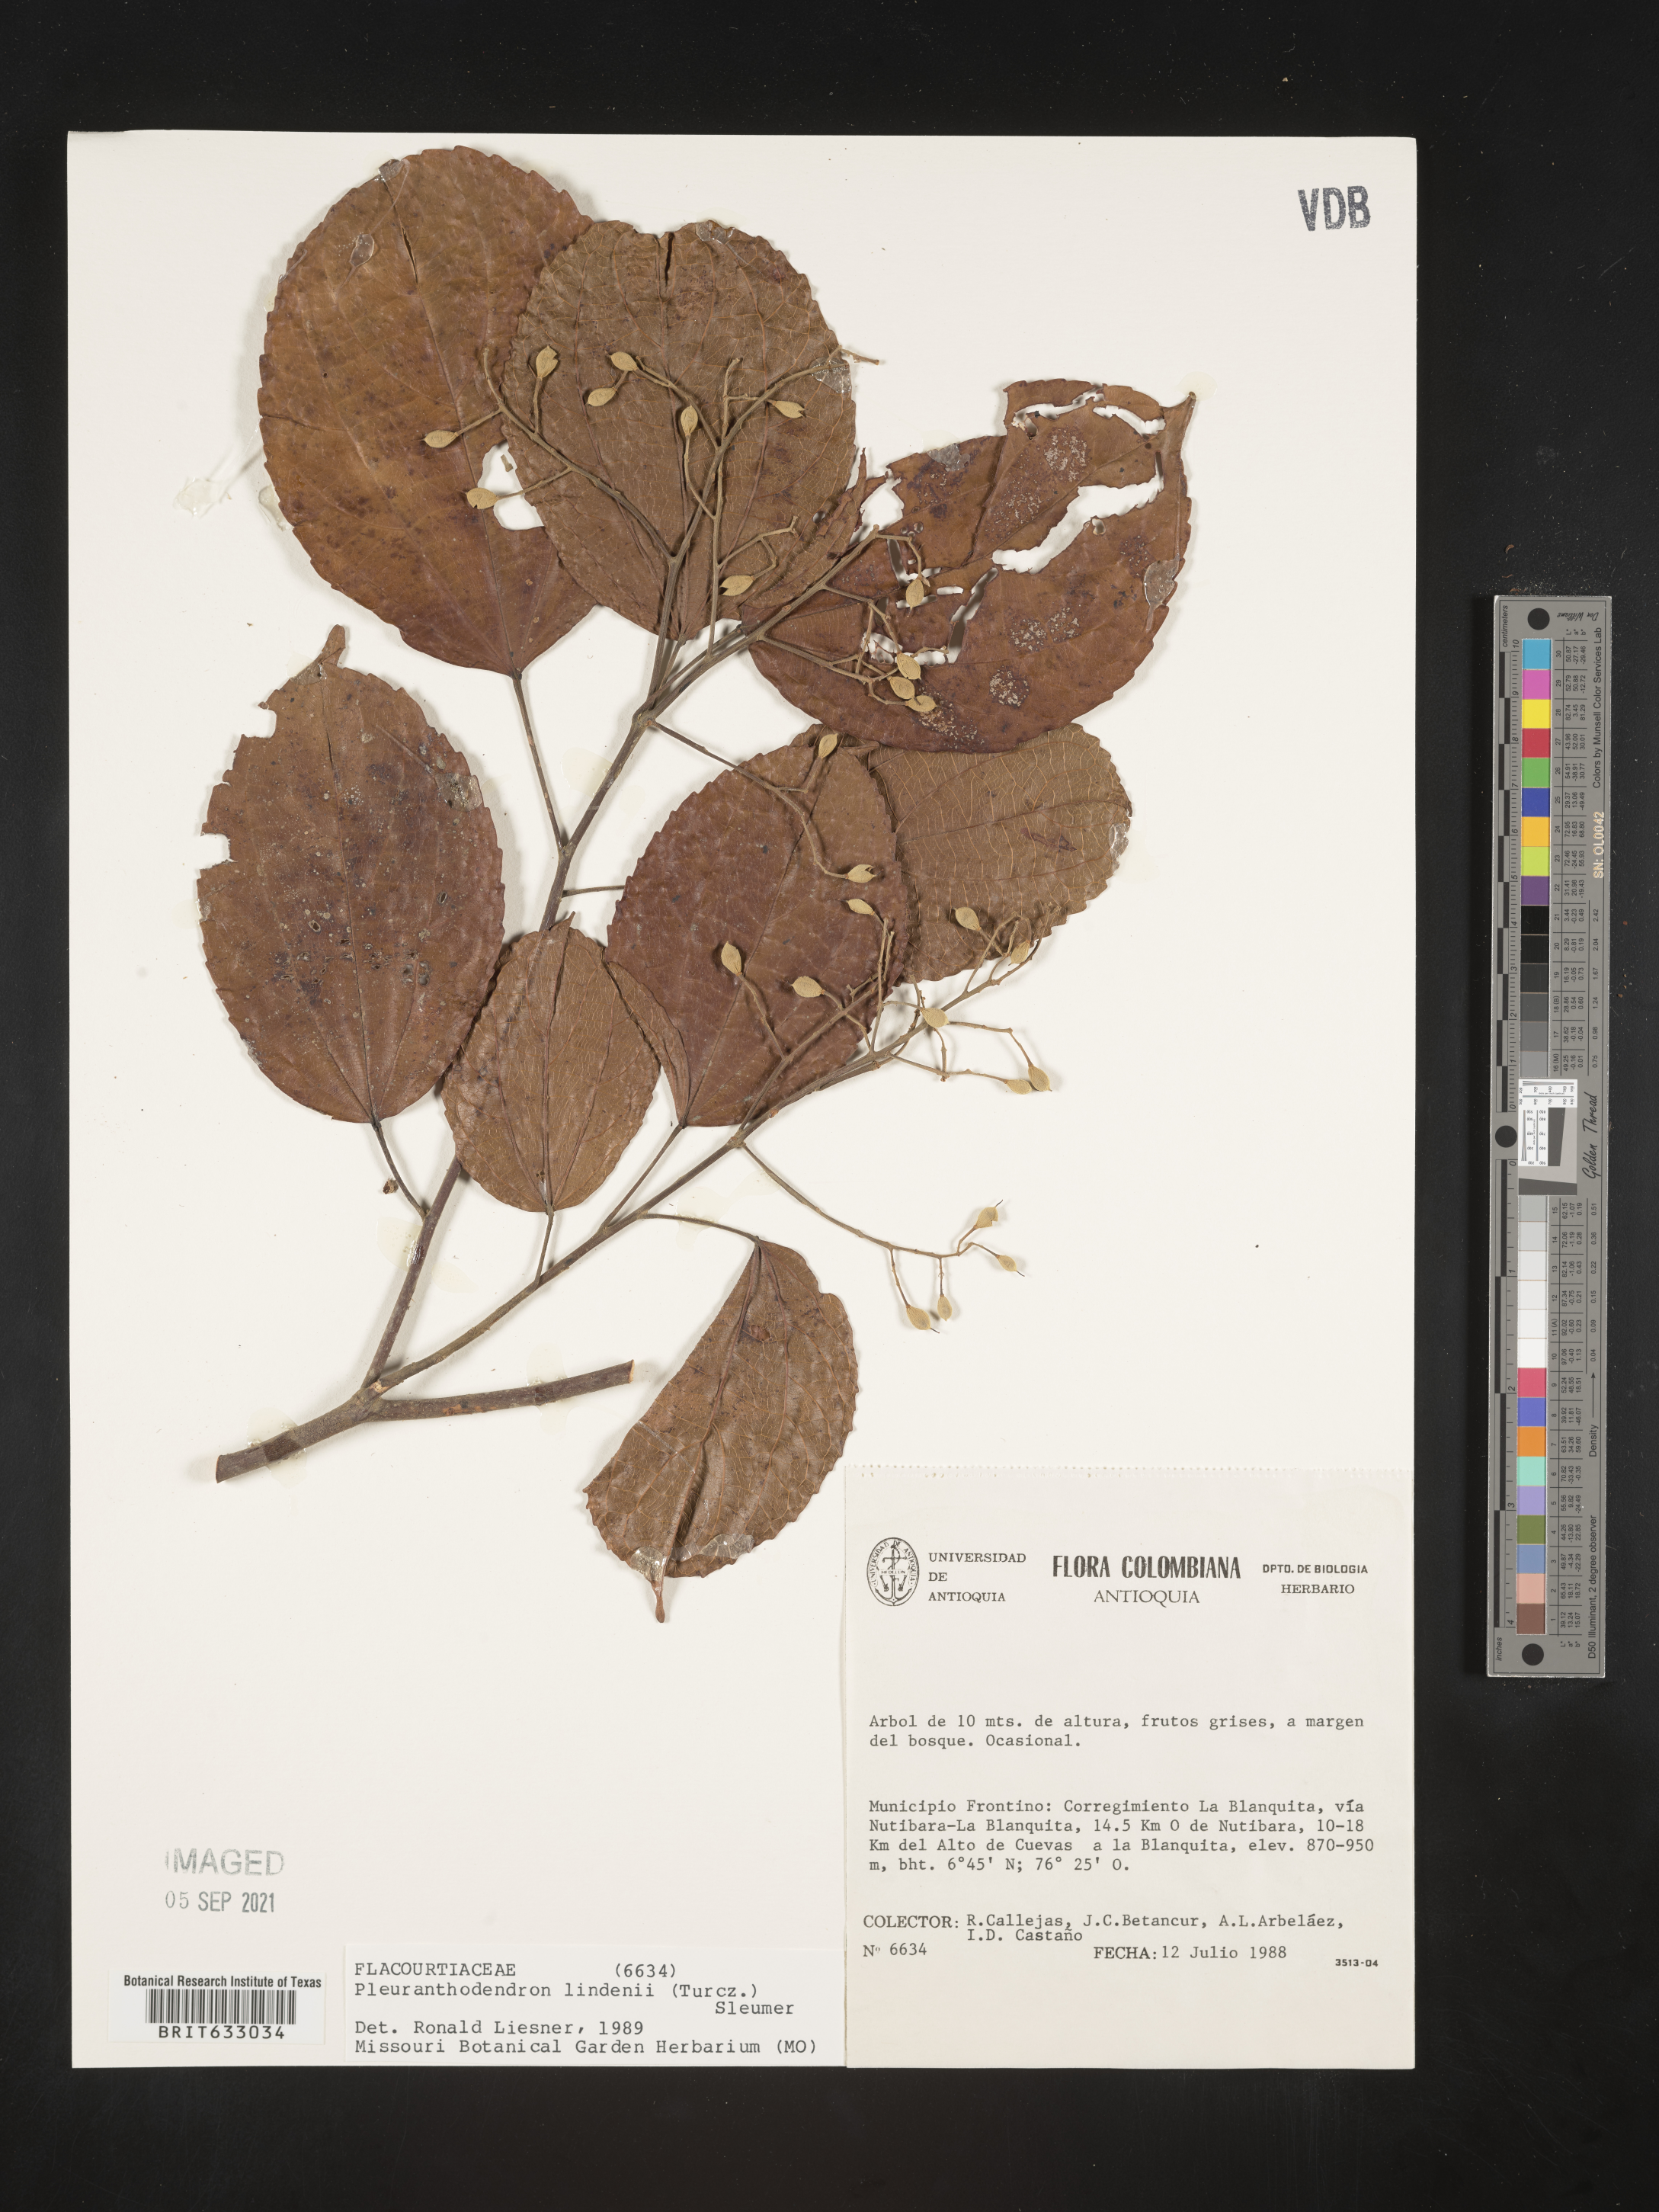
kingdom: Plantae
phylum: Tracheophyta
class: Magnoliopsida
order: Malpighiales
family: Salicaceae
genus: Pleuranthodendron
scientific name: Pleuranthodendron
